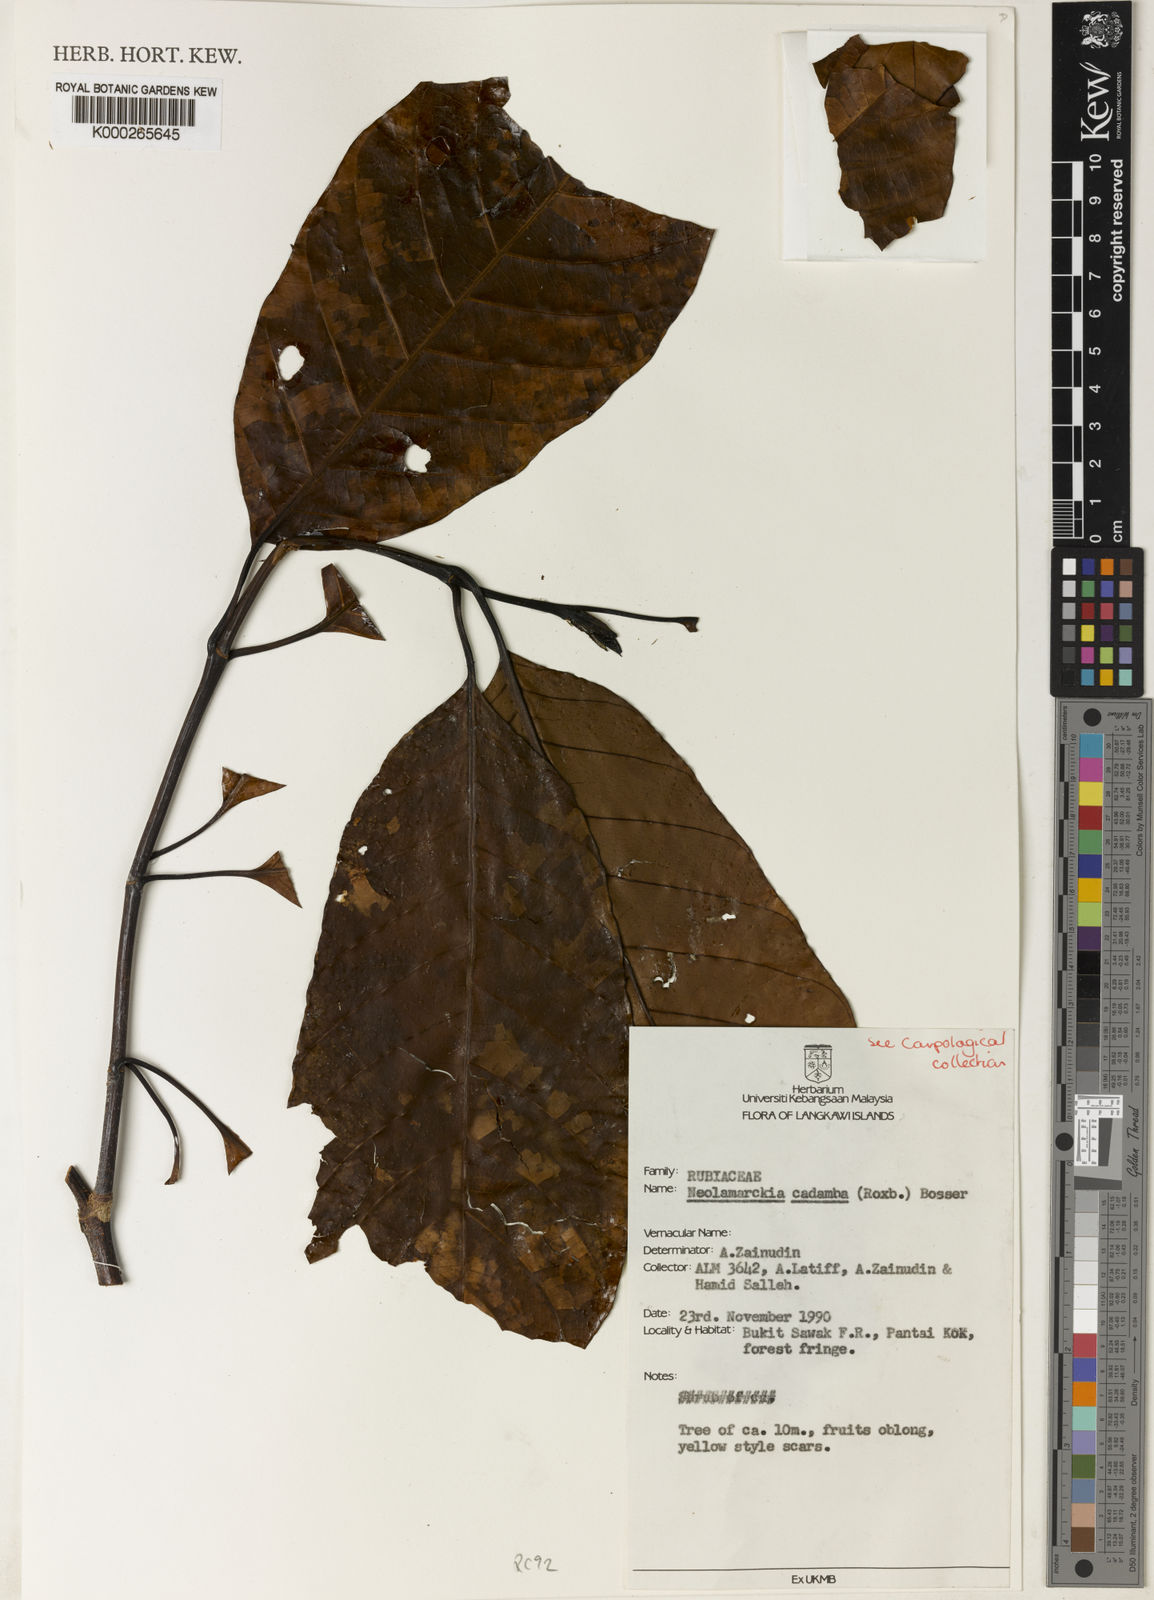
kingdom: Plantae
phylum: Tracheophyta
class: Magnoliopsida
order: Gentianales
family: Rubiaceae
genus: Neolamarckia
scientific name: Neolamarckia cadamba
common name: Leichhardt-pine
